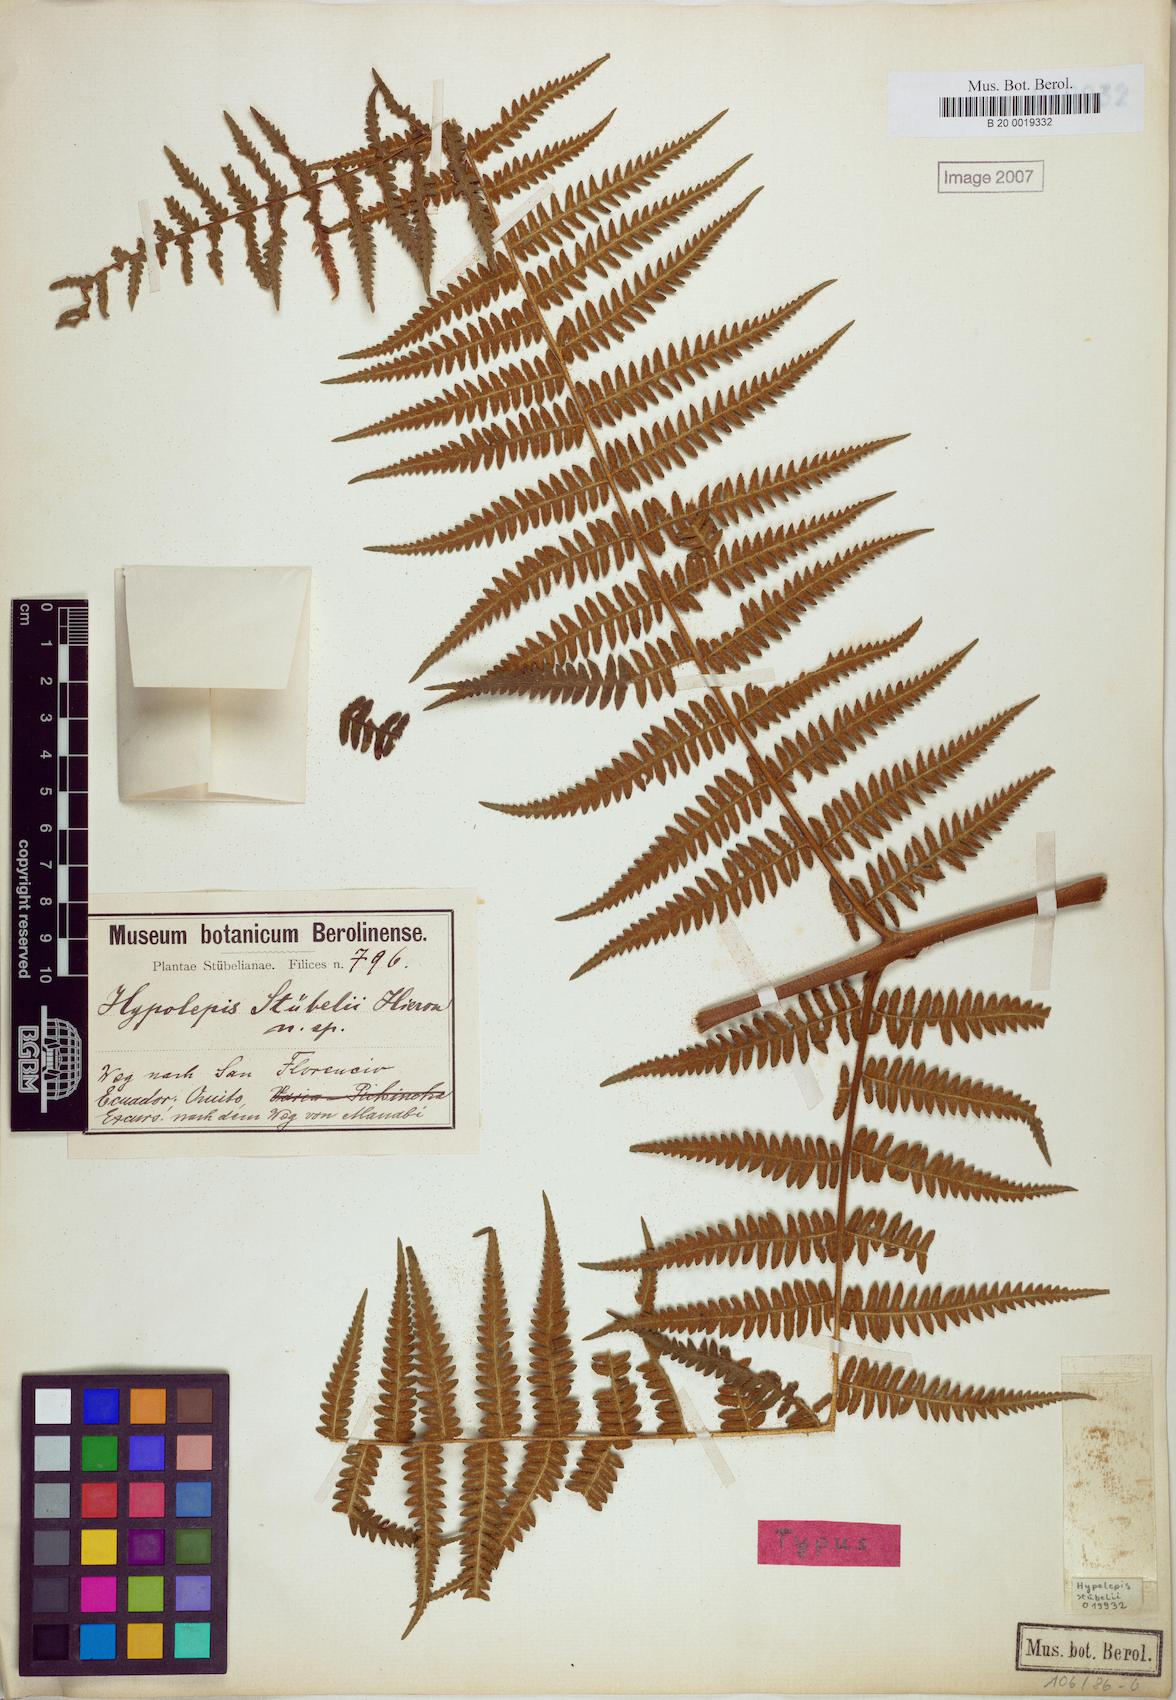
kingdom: Plantae
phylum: Tracheophyta
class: Polypodiopsida
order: Polypodiales
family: Dennstaedtiaceae
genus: Hypolepis
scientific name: Hypolepis stuebelii
